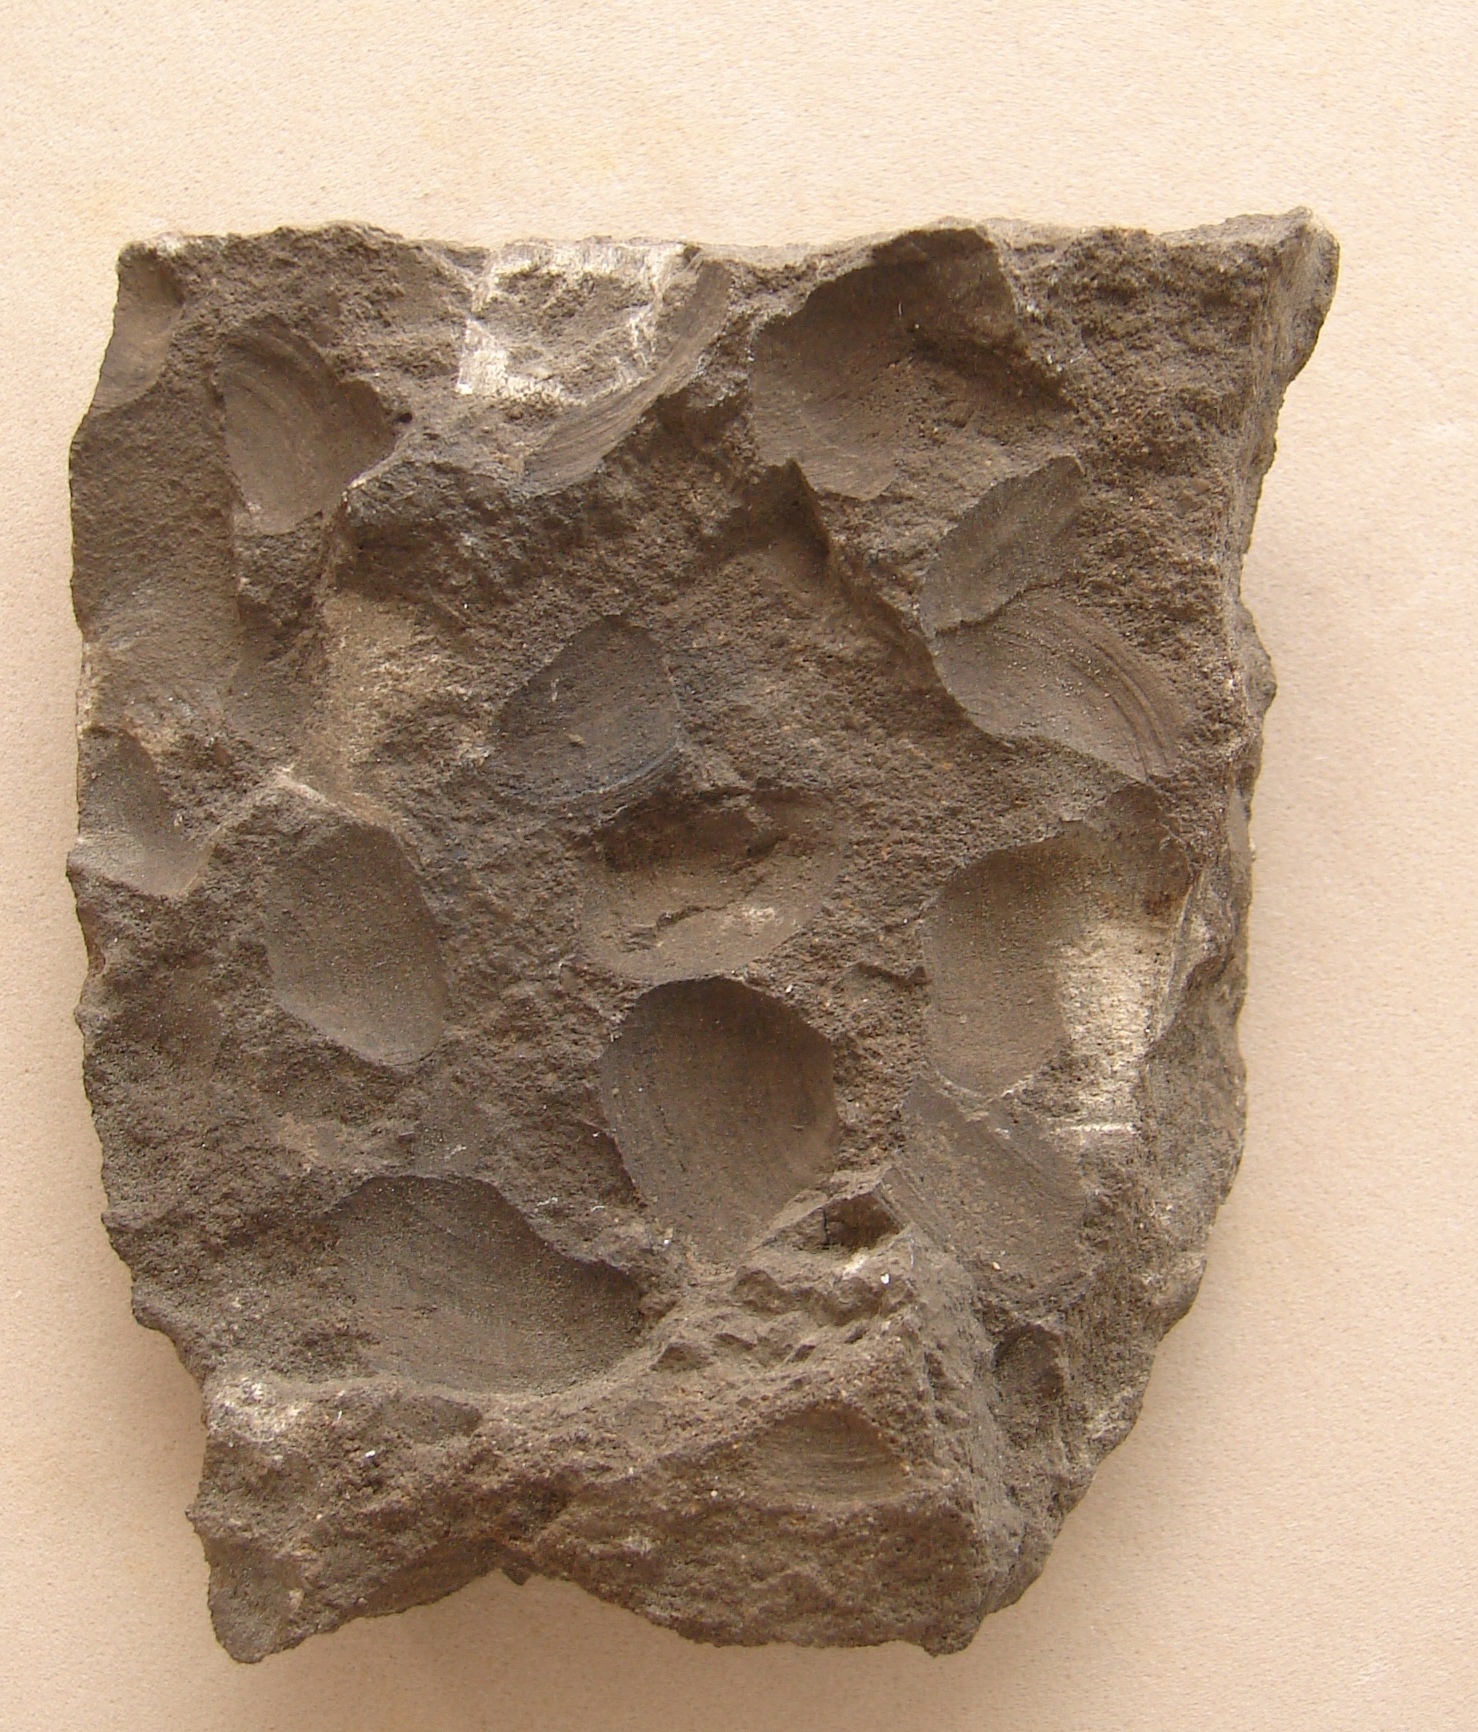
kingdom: Animalia
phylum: Mollusca
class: Bivalvia
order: Myida
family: Corbulidae
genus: Corbula
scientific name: Corbula
